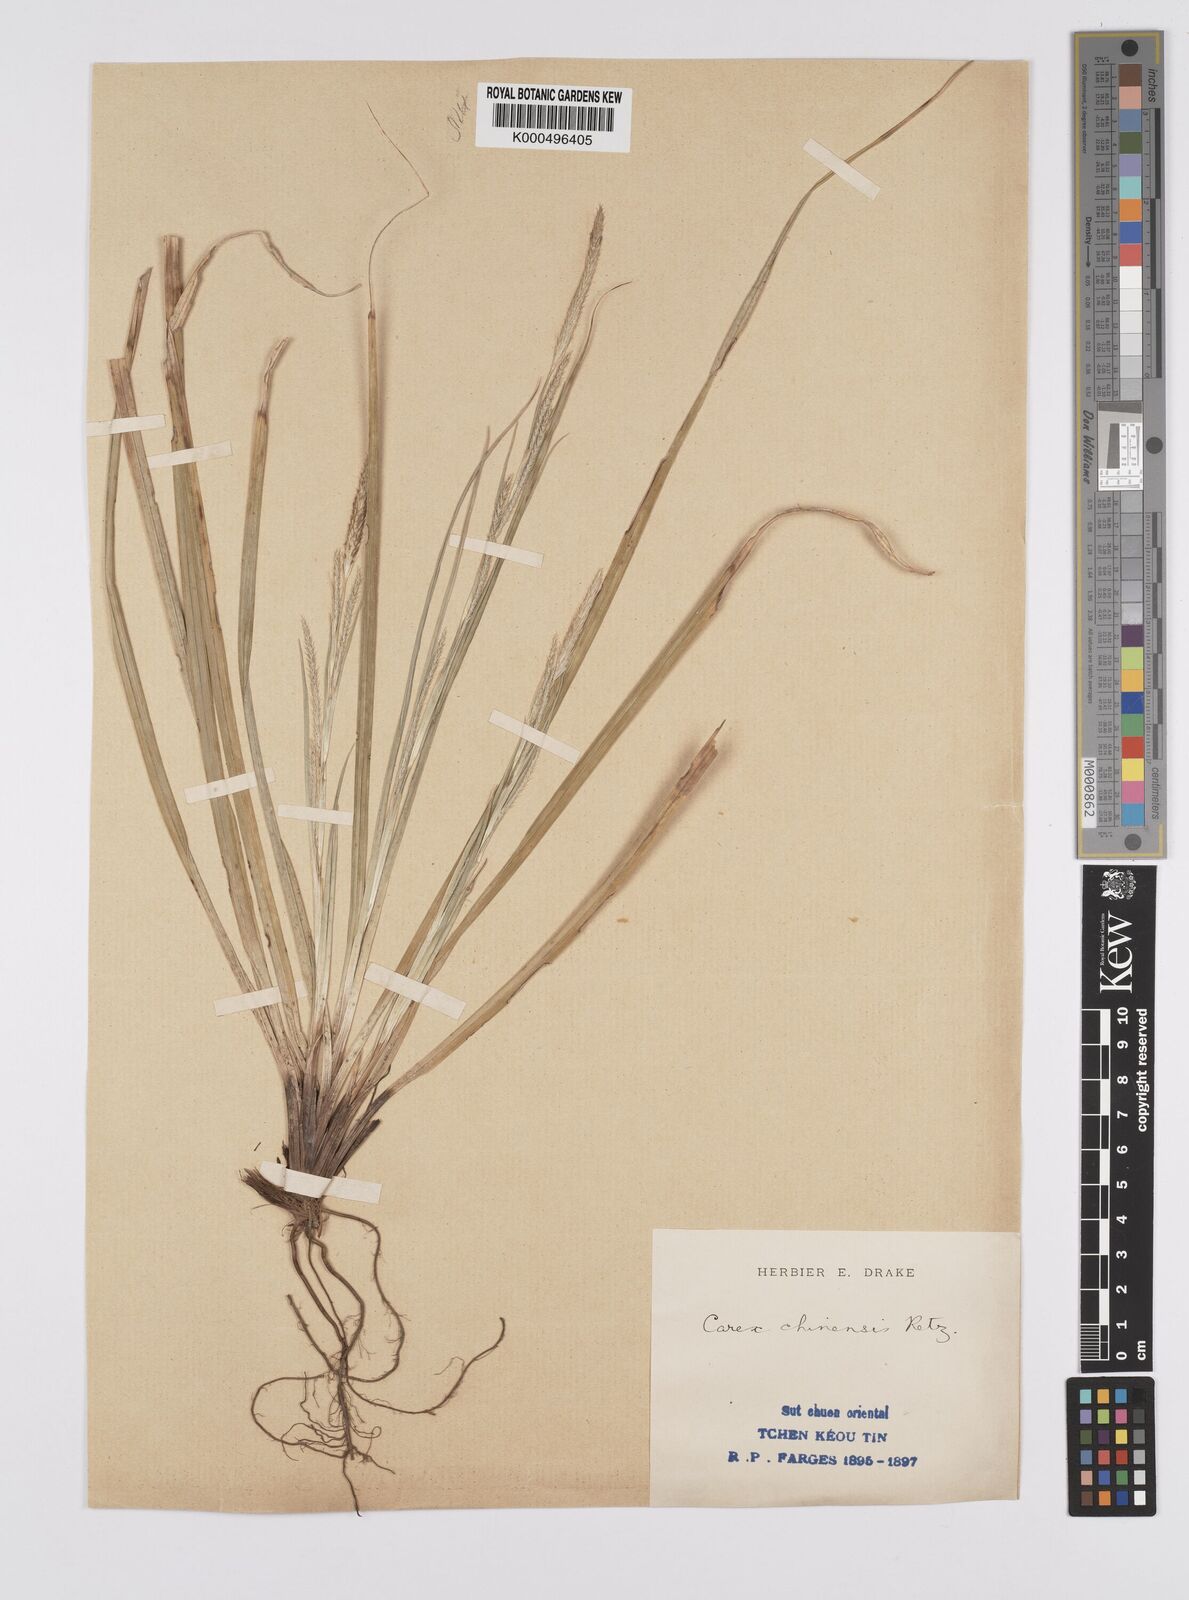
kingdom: Plantae
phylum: Tracheophyta
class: Liliopsida
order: Poales
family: Cyperaceae
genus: Carex
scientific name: Carex chinensis
